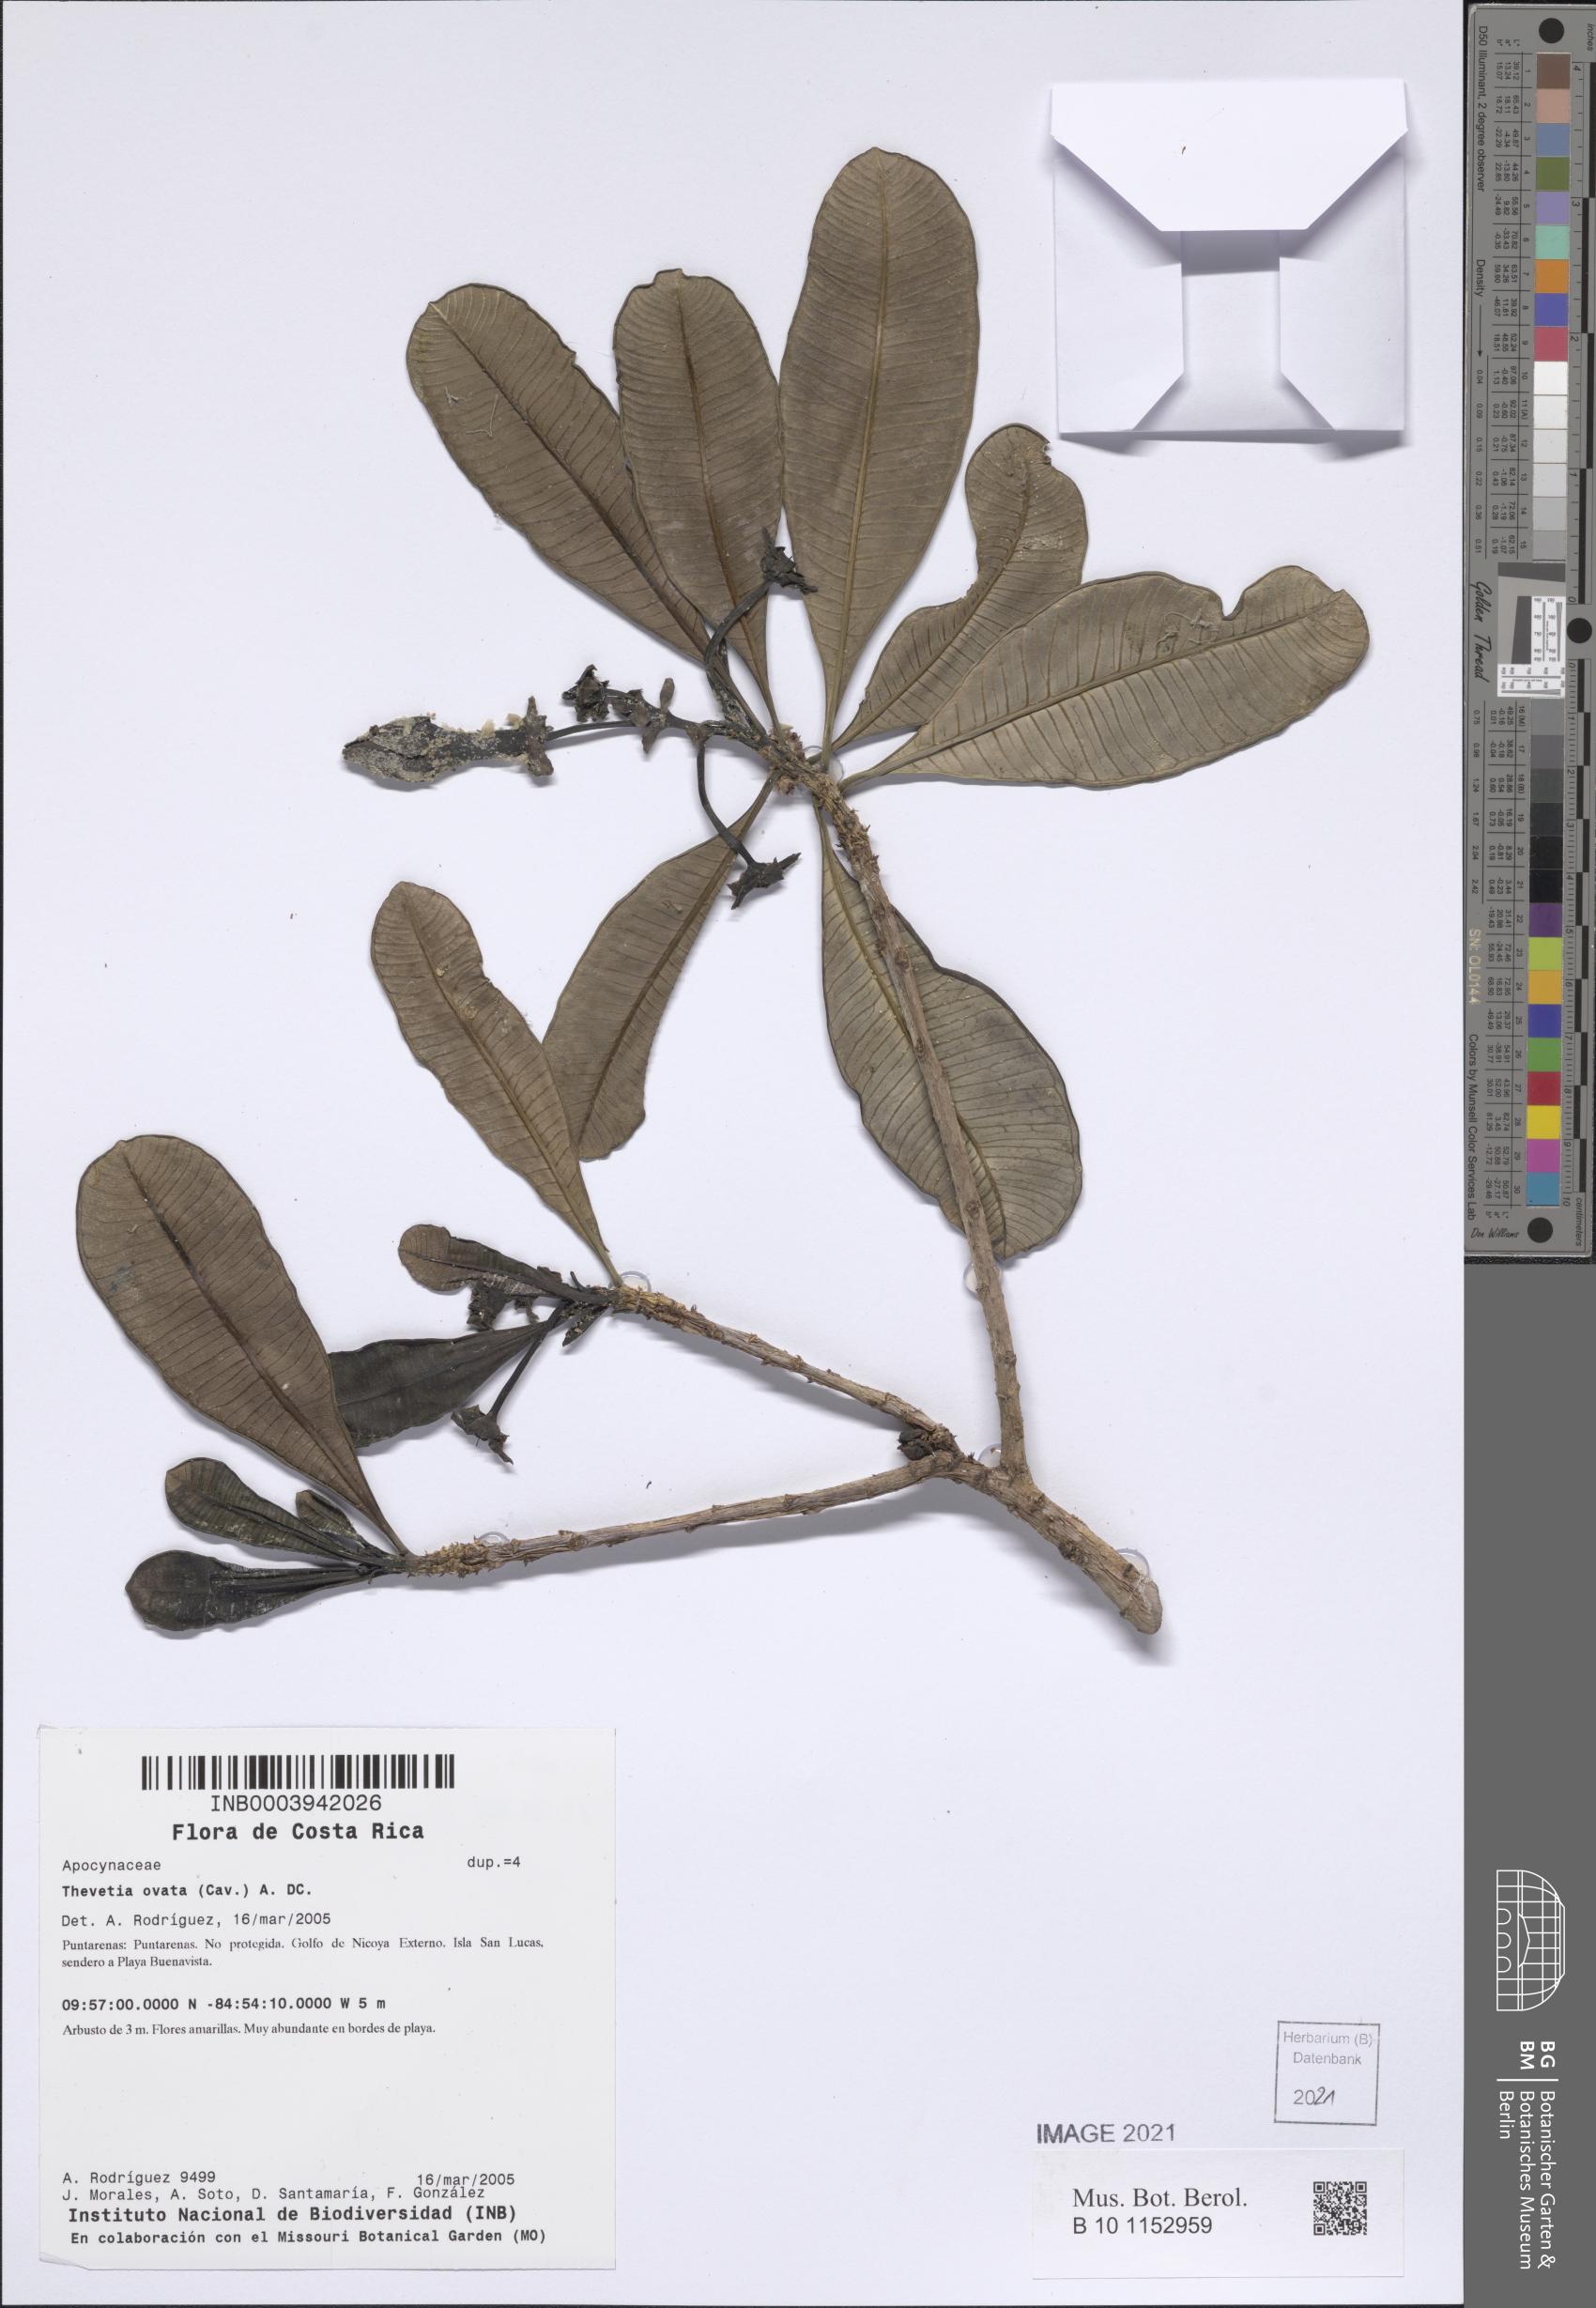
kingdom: Plantae
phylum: Tracheophyta
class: Magnoliopsida
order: Gentianales
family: Apocynaceae
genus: Cascabela
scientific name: Cascabela ovata
